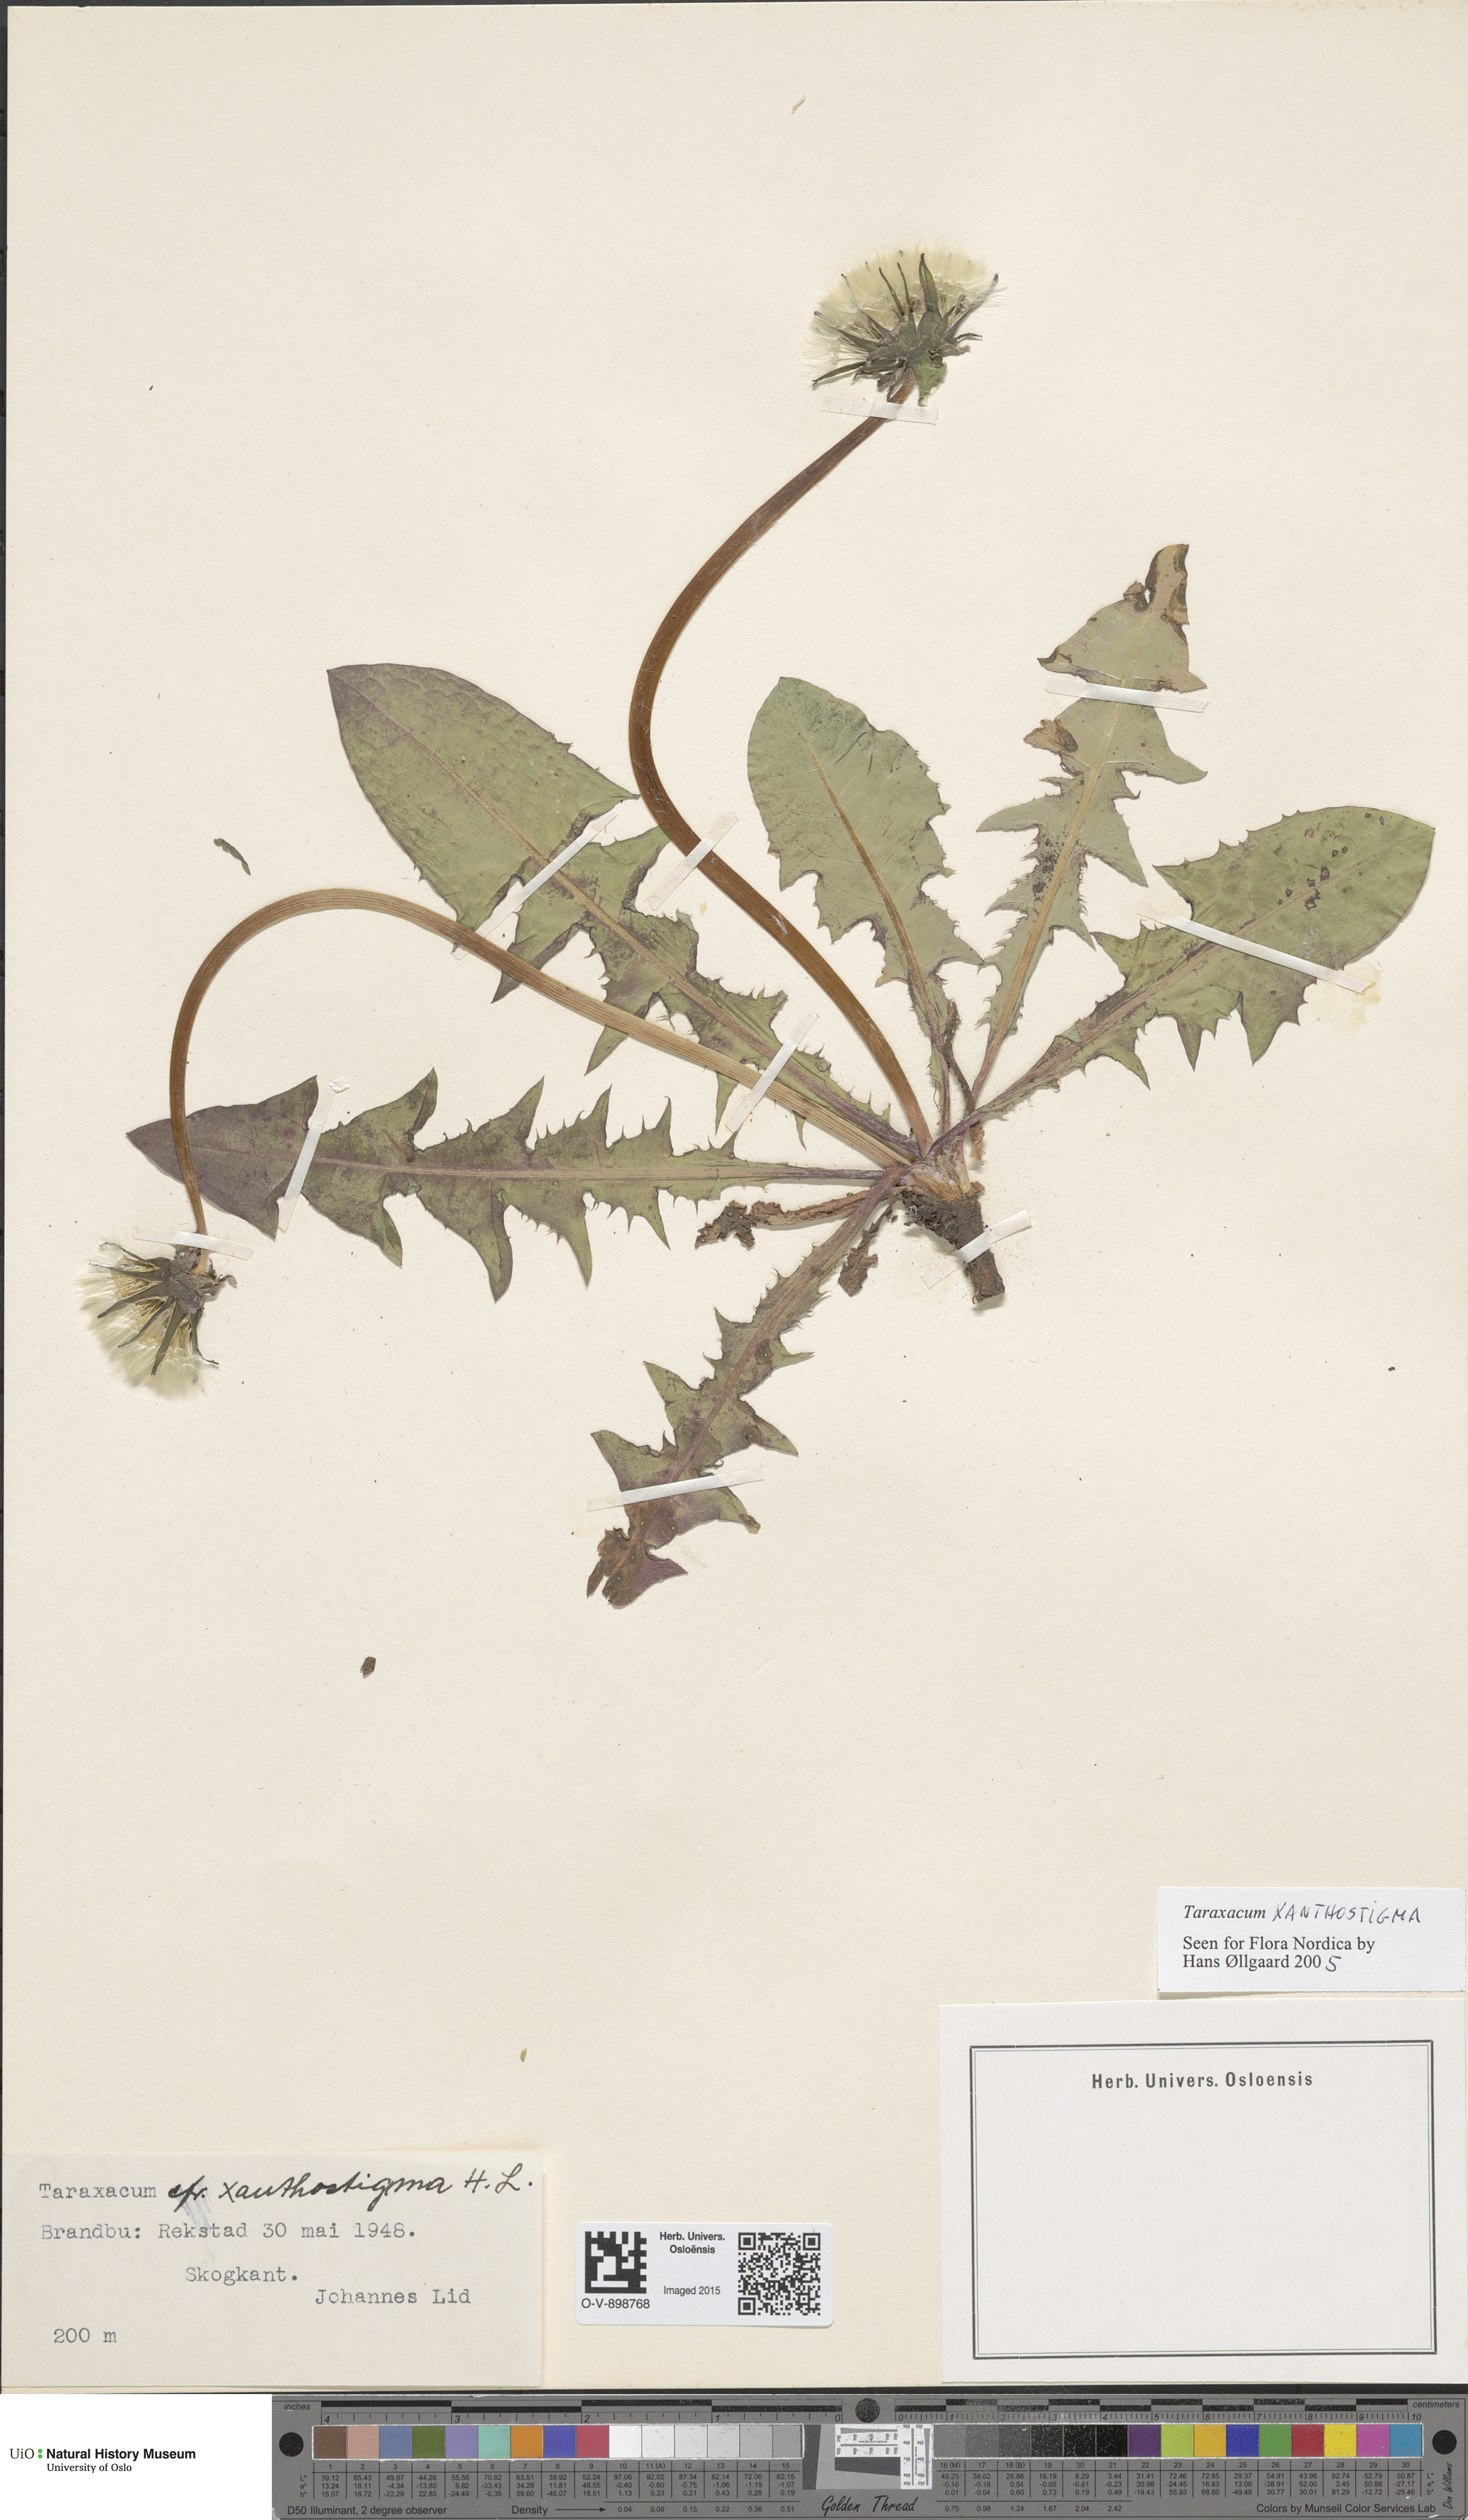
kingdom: Plantae
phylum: Tracheophyta
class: Magnoliopsida
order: Asterales
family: Asteraceae
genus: Taraxacum
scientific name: Taraxacum xanthostigma
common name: Ochre-styled dandelion
